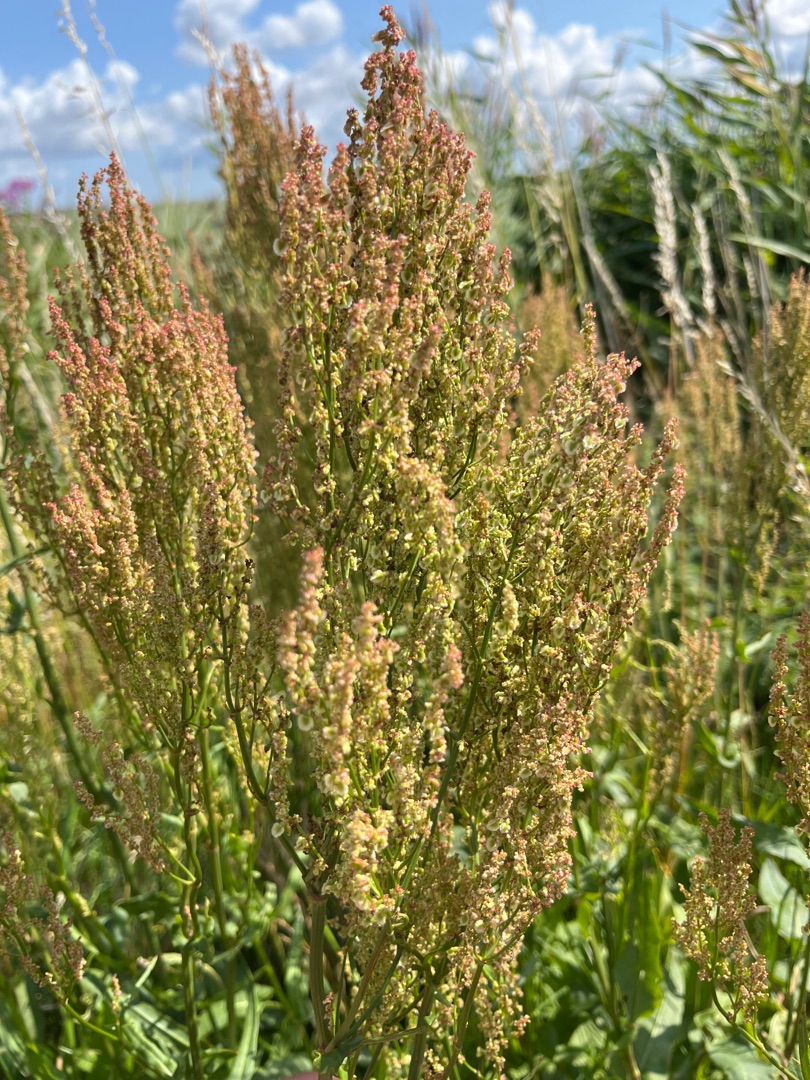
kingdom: Plantae
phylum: Tracheophyta
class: Magnoliopsida
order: Caryophyllales
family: Polygonaceae
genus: Rumex
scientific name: Rumex thyrsiflorus
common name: Dusk-syre
